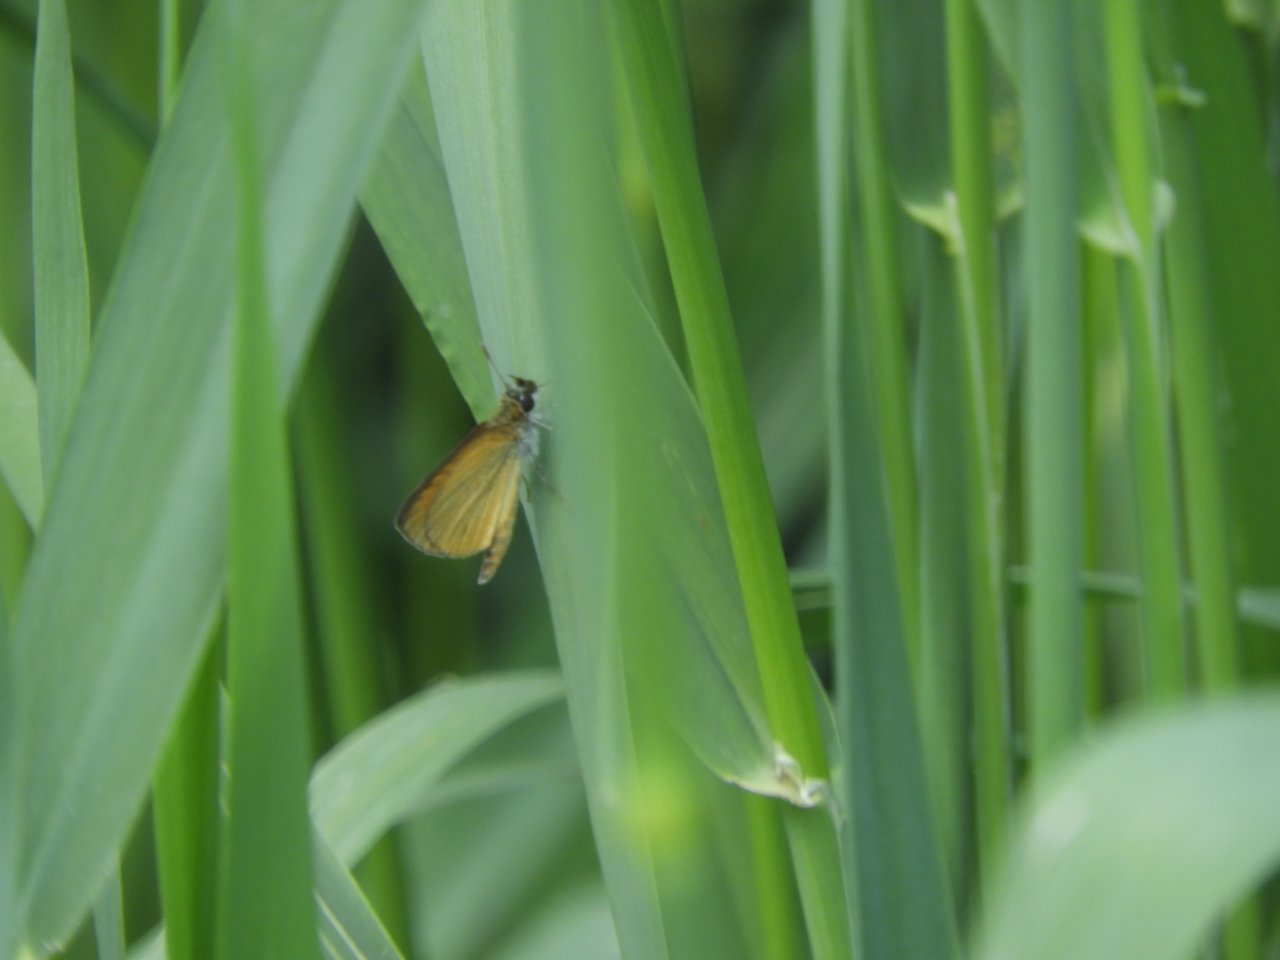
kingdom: Animalia
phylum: Arthropoda
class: Insecta
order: Lepidoptera
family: Hesperiidae
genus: Ancyloxypha
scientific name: Ancyloxypha numitor
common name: Least Skipper
